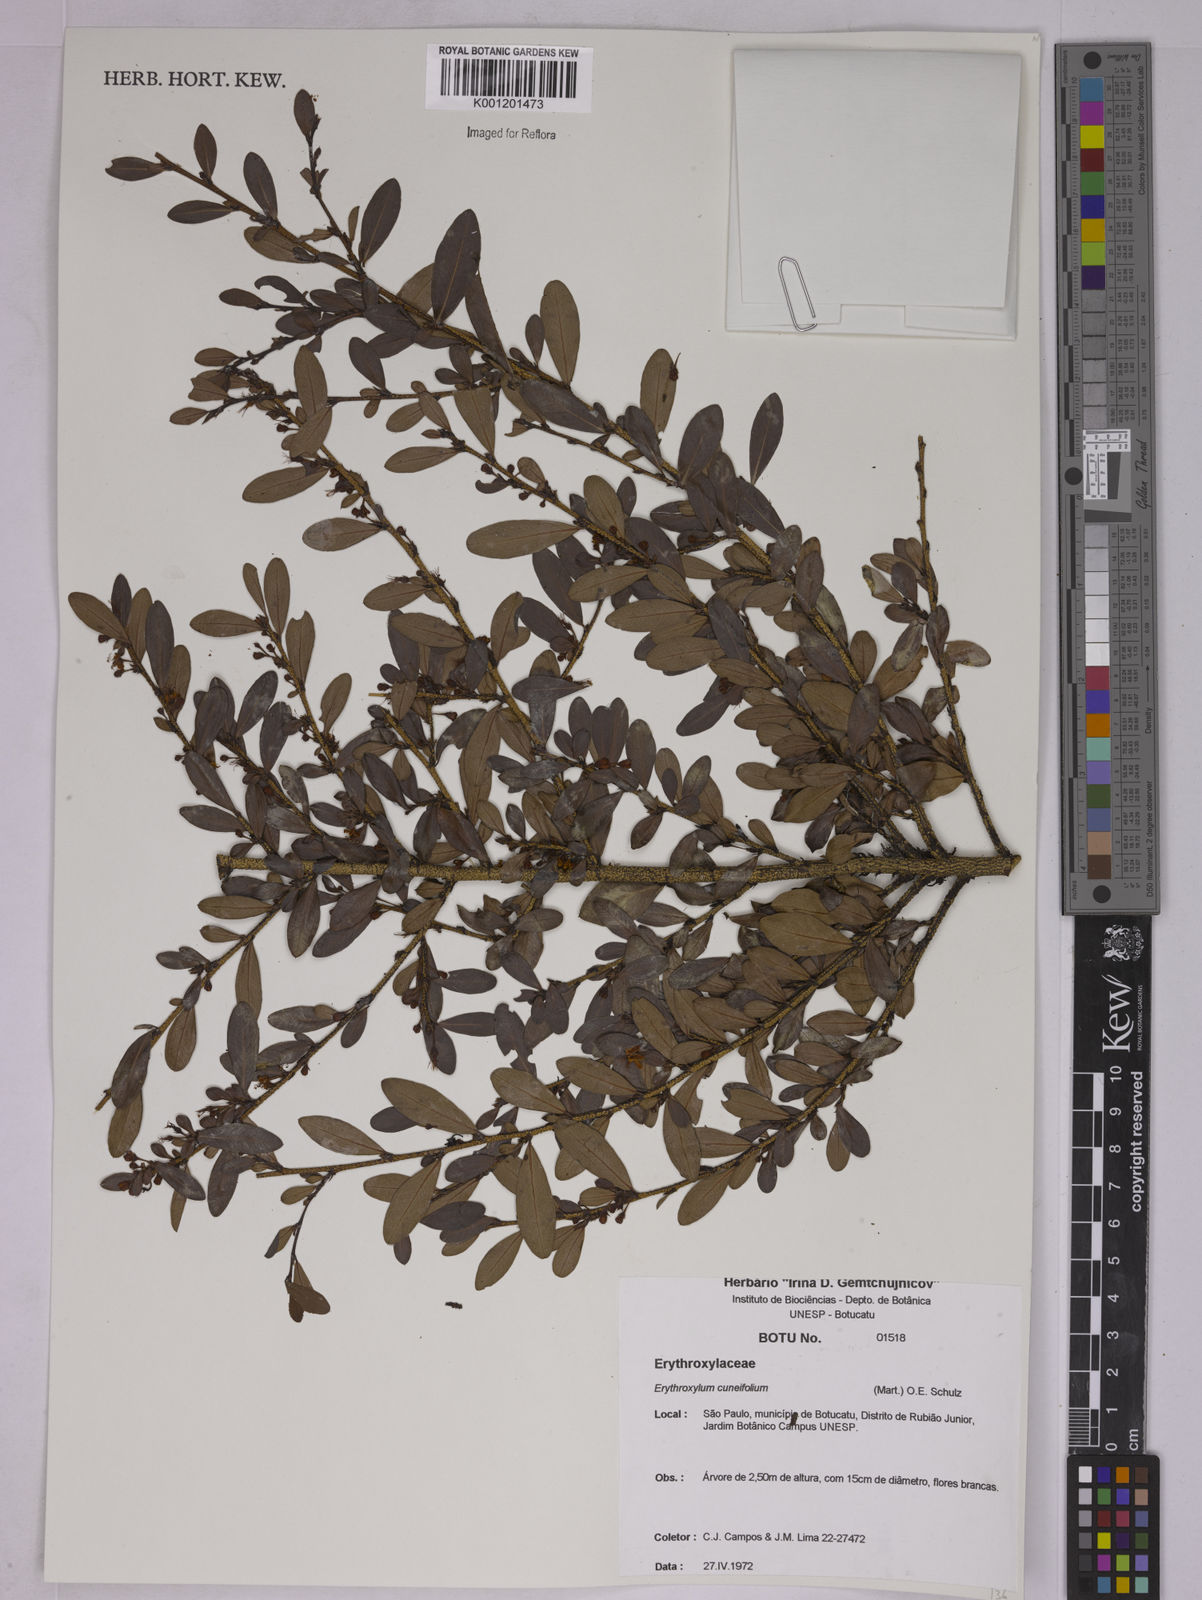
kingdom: Plantae
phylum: Tracheophyta
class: Magnoliopsida
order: Malpighiales
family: Erythroxylaceae
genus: Erythroxylum
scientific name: Erythroxylum cuneifolium
